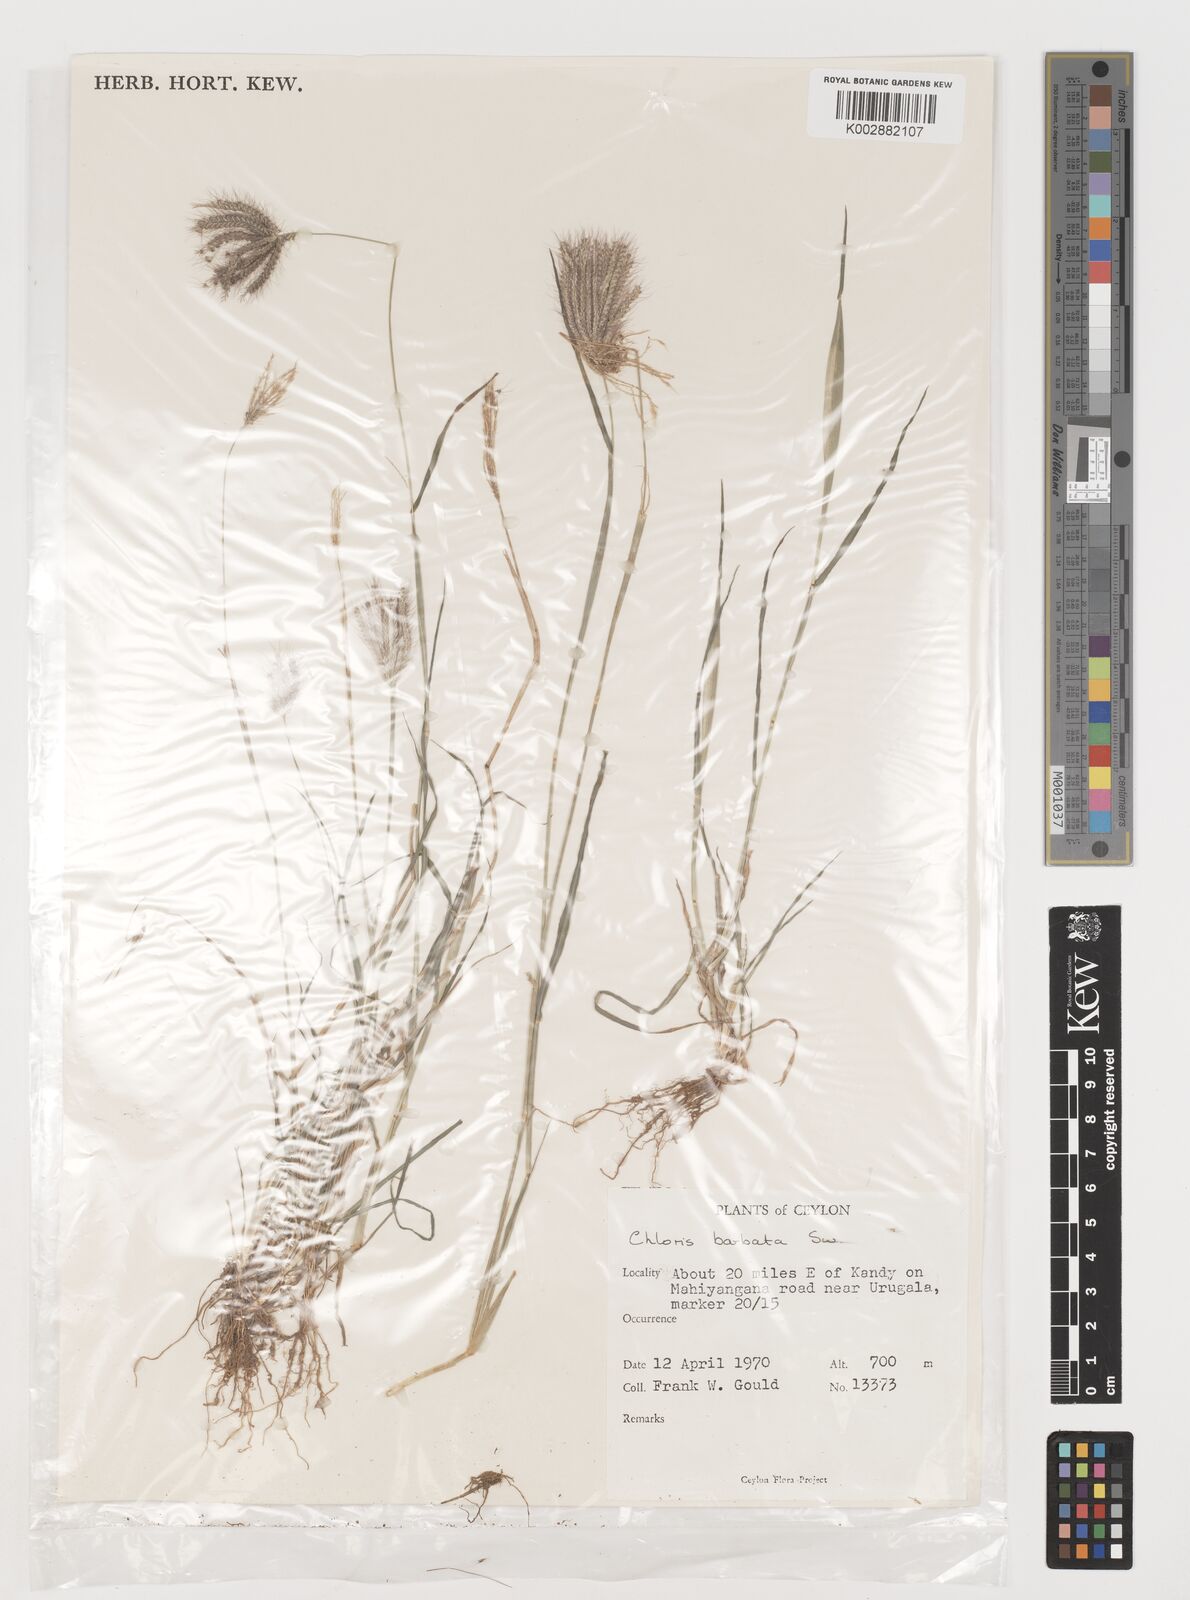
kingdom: Plantae
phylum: Tracheophyta
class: Liliopsida
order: Poales
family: Poaceae
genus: Chloris
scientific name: Chloris barbata
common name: Swollen fingergrass
